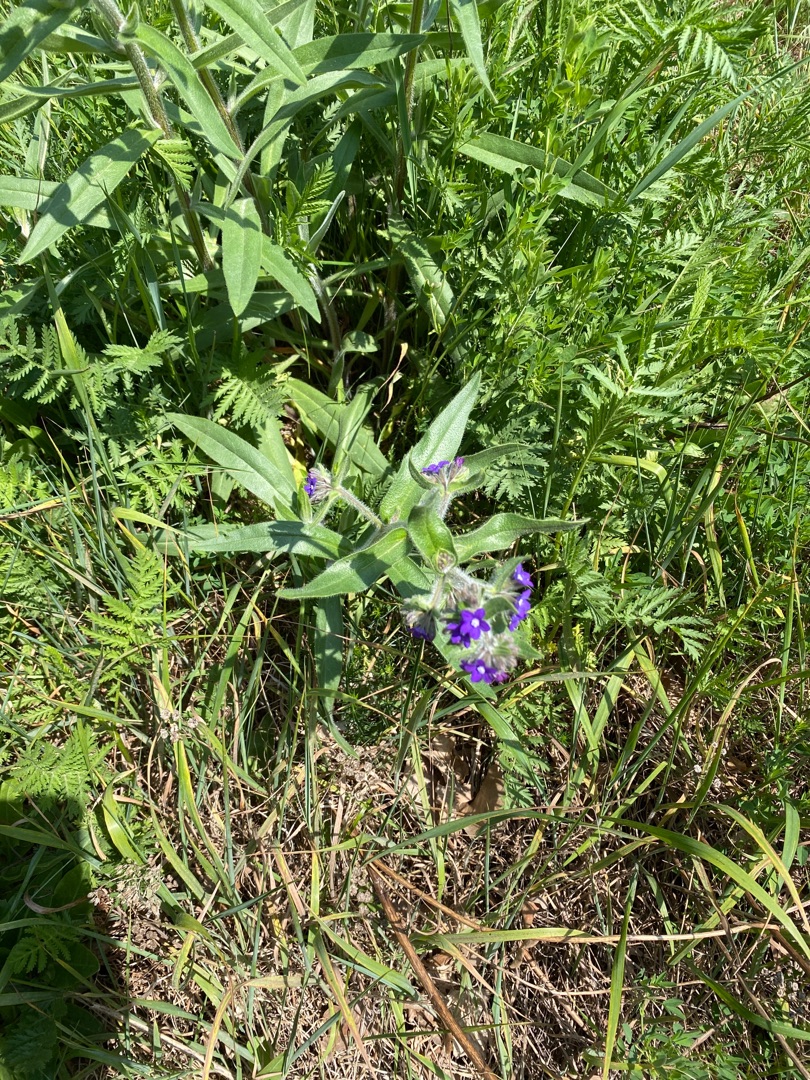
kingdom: Plantae
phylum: Tracheophyta
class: Magnoliopsida
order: Boraginales
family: Boraginaceae
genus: Anchusa
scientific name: Anchusa officinalis
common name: Læge-oksetunge
